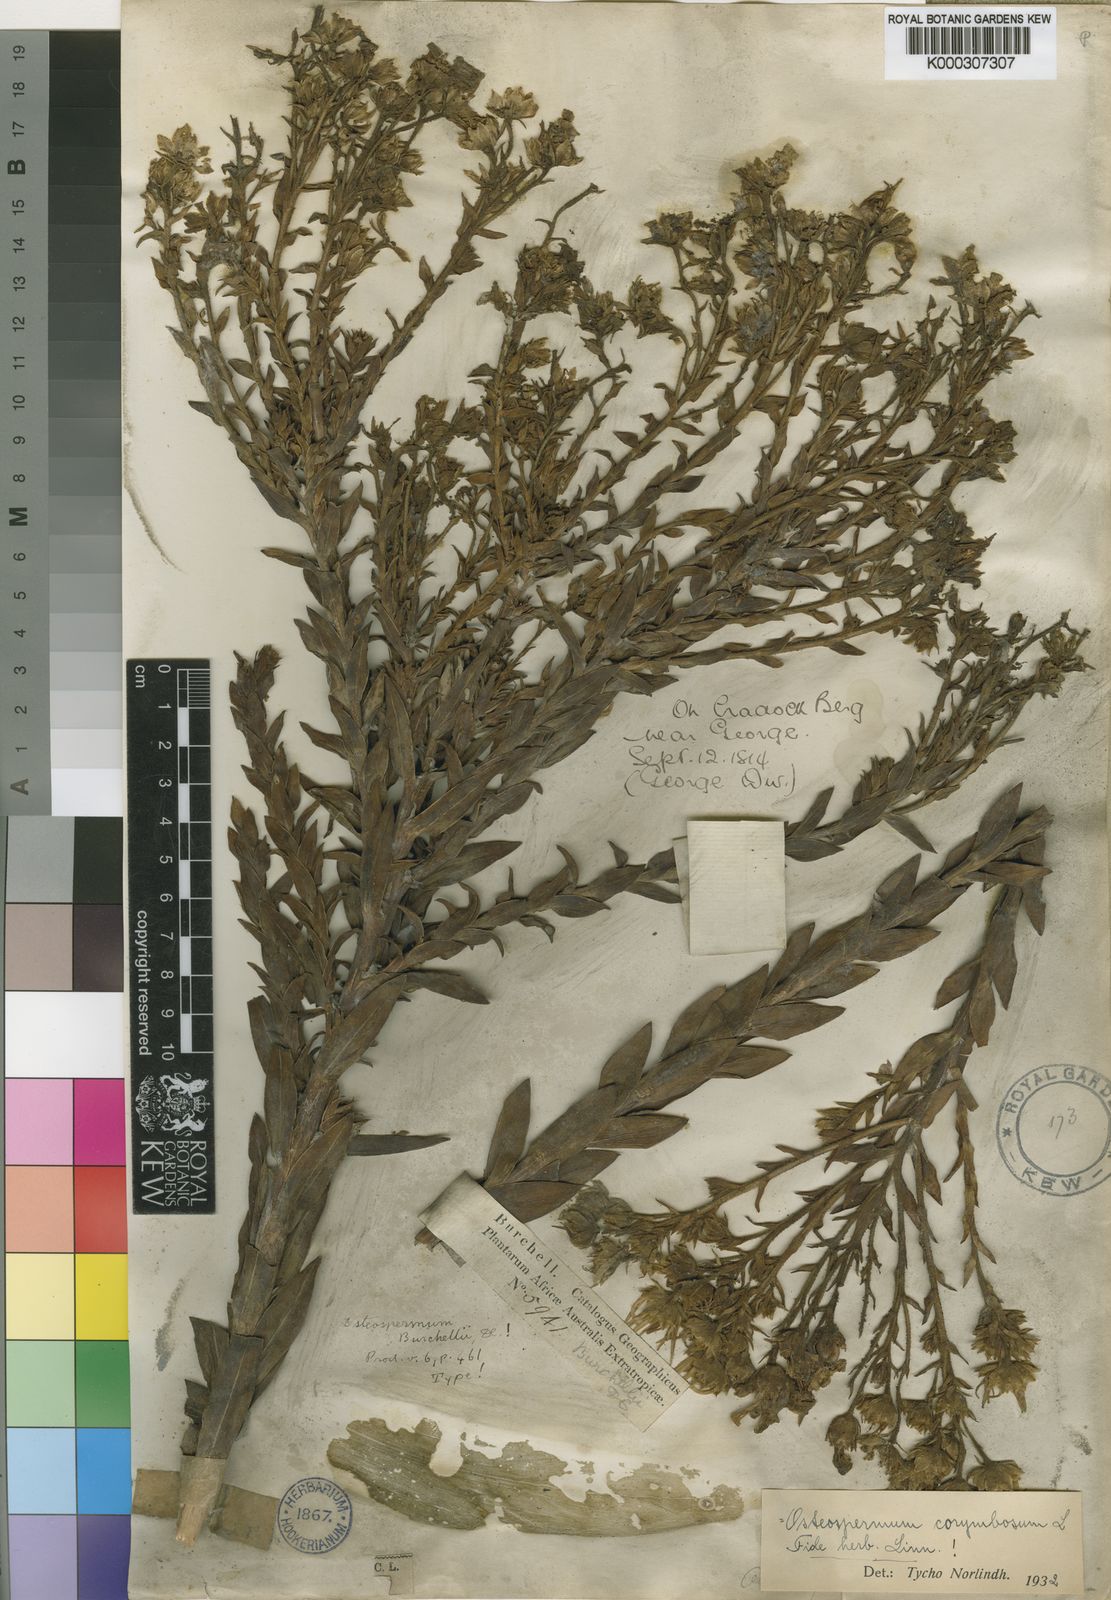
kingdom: Plantae
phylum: Tracheophyta
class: Magnoliopsida
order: Asterales
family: Asteraceae
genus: Osteospermum
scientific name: Osteospermum corymbosum
